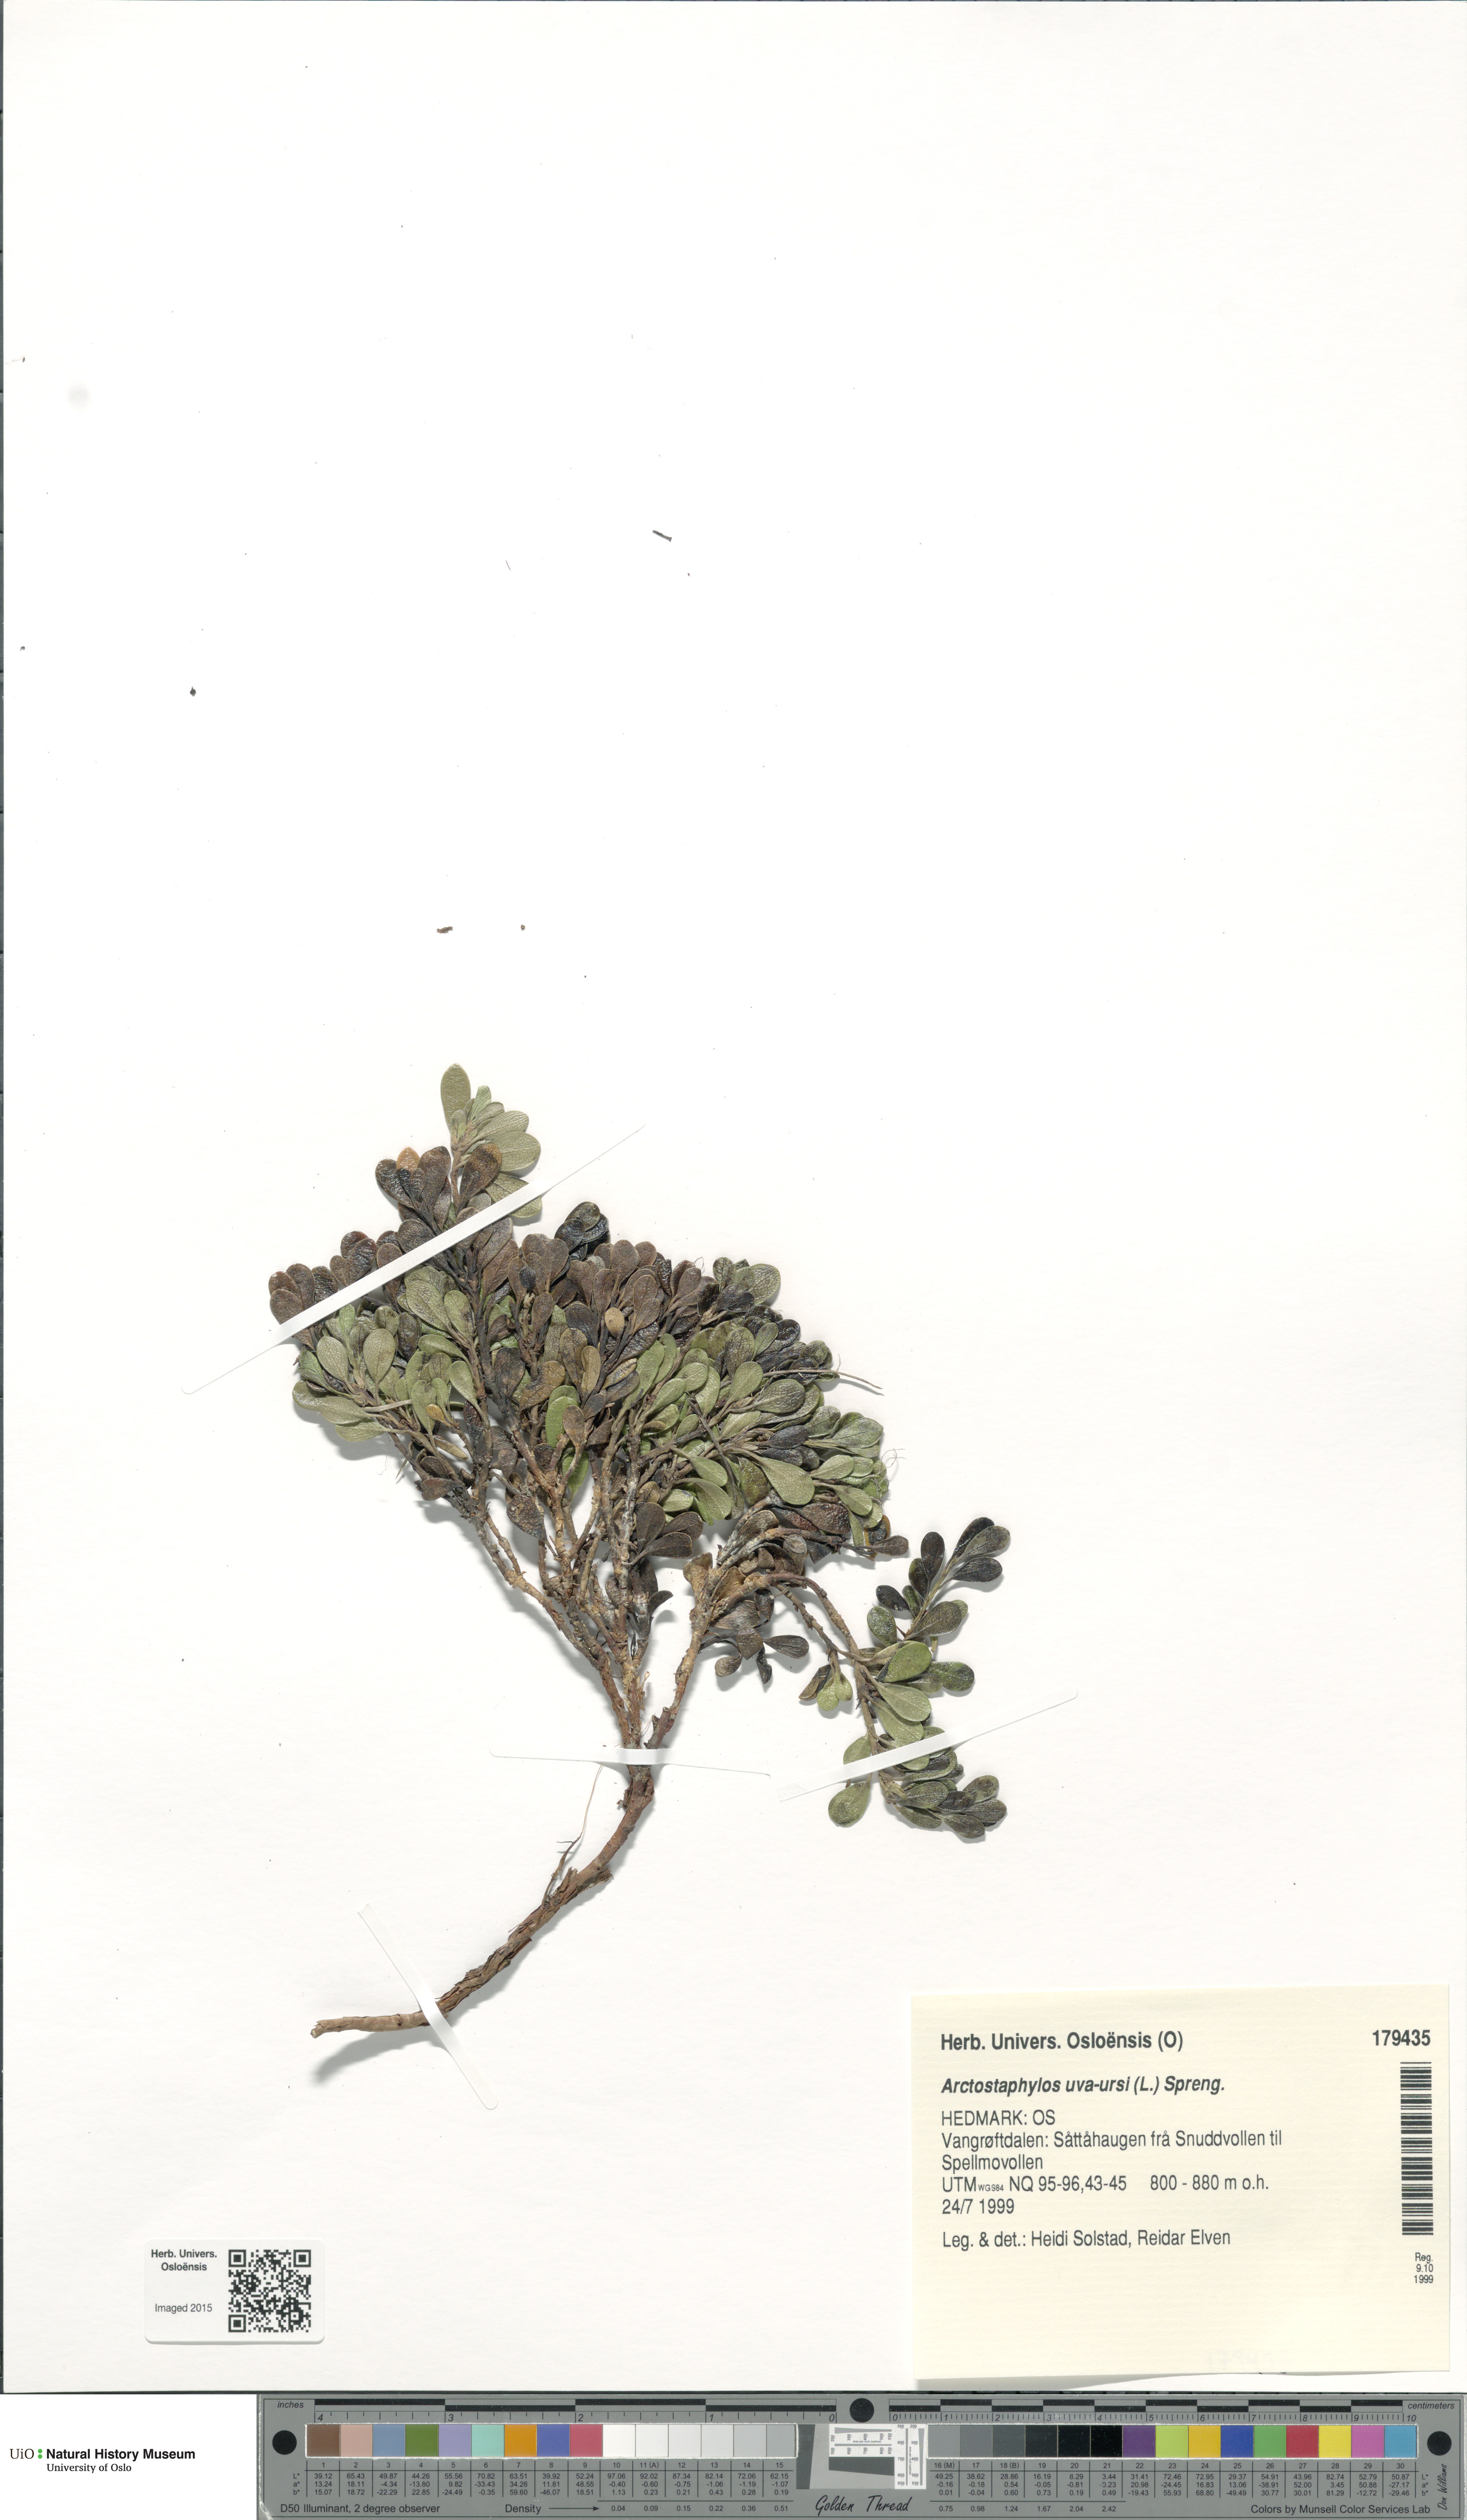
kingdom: Plantae
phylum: Tracheophyta
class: Magnoliopsida
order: Ericales
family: Ericaceae
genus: Arctostaphylos
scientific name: Arctostaphylos uva-ursi
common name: Bearberry
